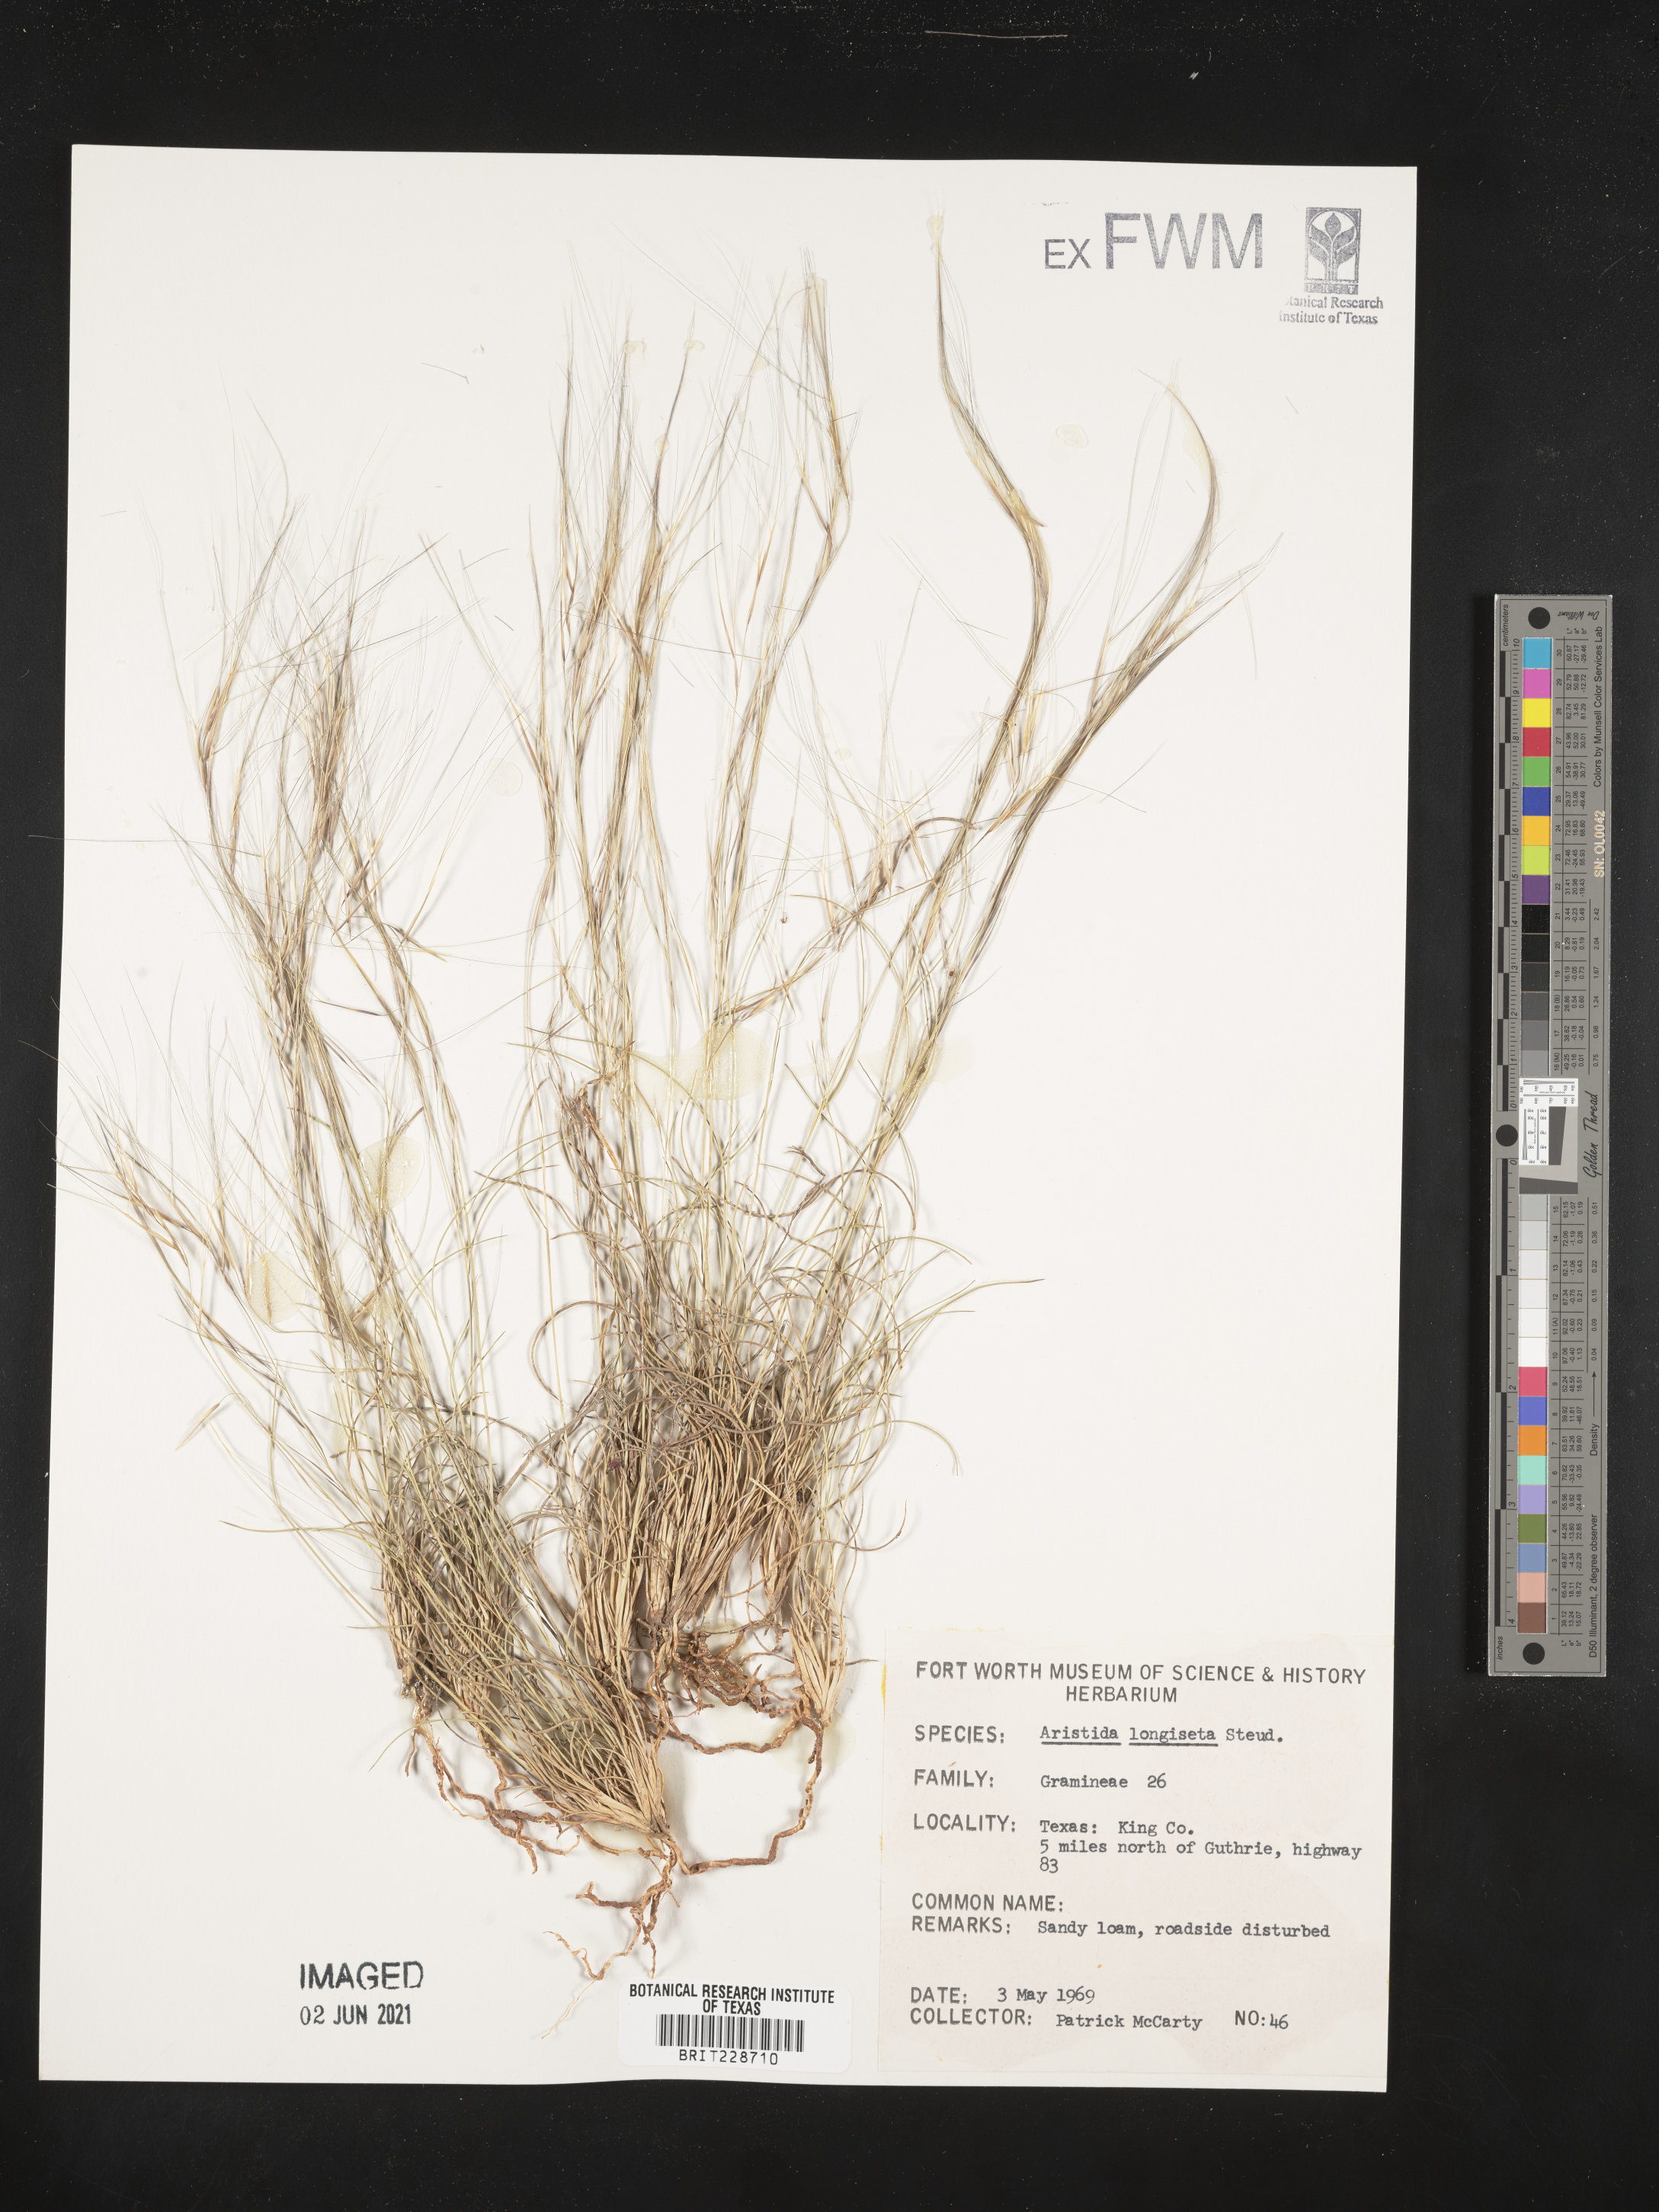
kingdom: Plantae
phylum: Tracheophyta
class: Liliopsida
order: Poales
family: Poaceae
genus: Aristida
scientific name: Aristida longiseta
